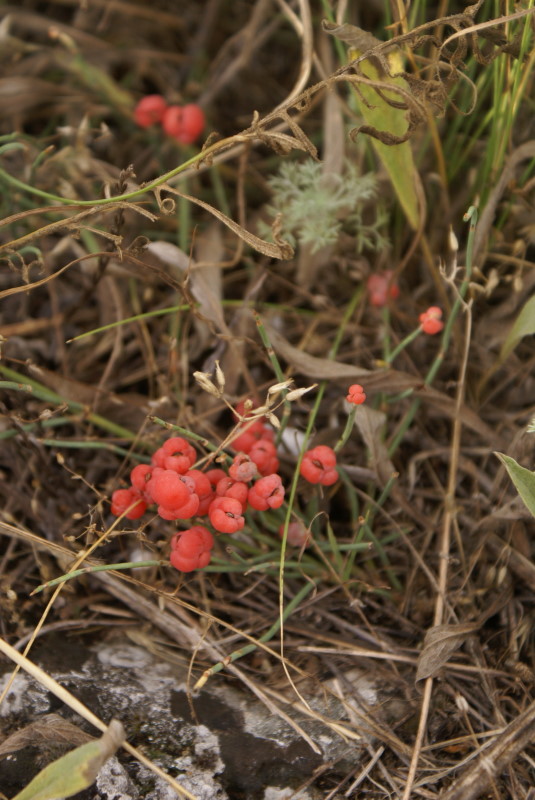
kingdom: Plantae
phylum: Tracheophyta
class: Gnetopsida
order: Ephedrales
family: Ephedraceae
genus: Ephedra
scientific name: Ephedra distachya
